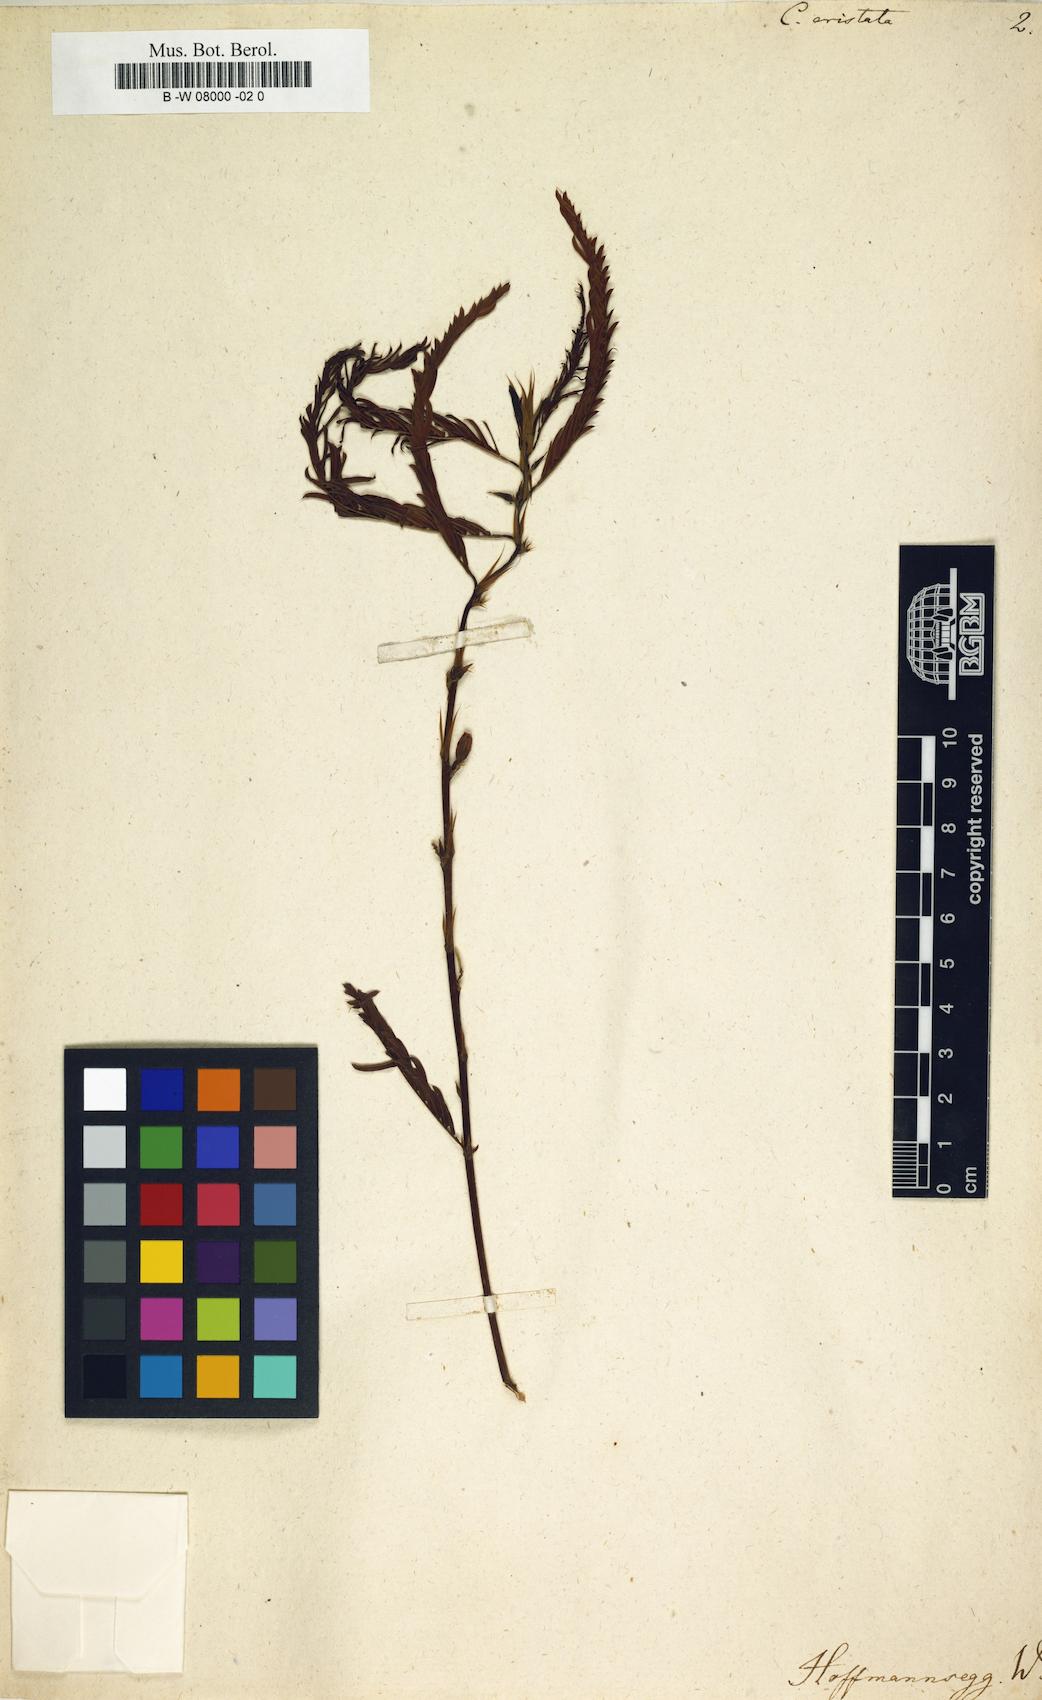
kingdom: Plantae
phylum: Tracheophyta
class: Magnoliopsida
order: Fabales
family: Fabaceae
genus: Chamaecrista
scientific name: Chamaecrista
